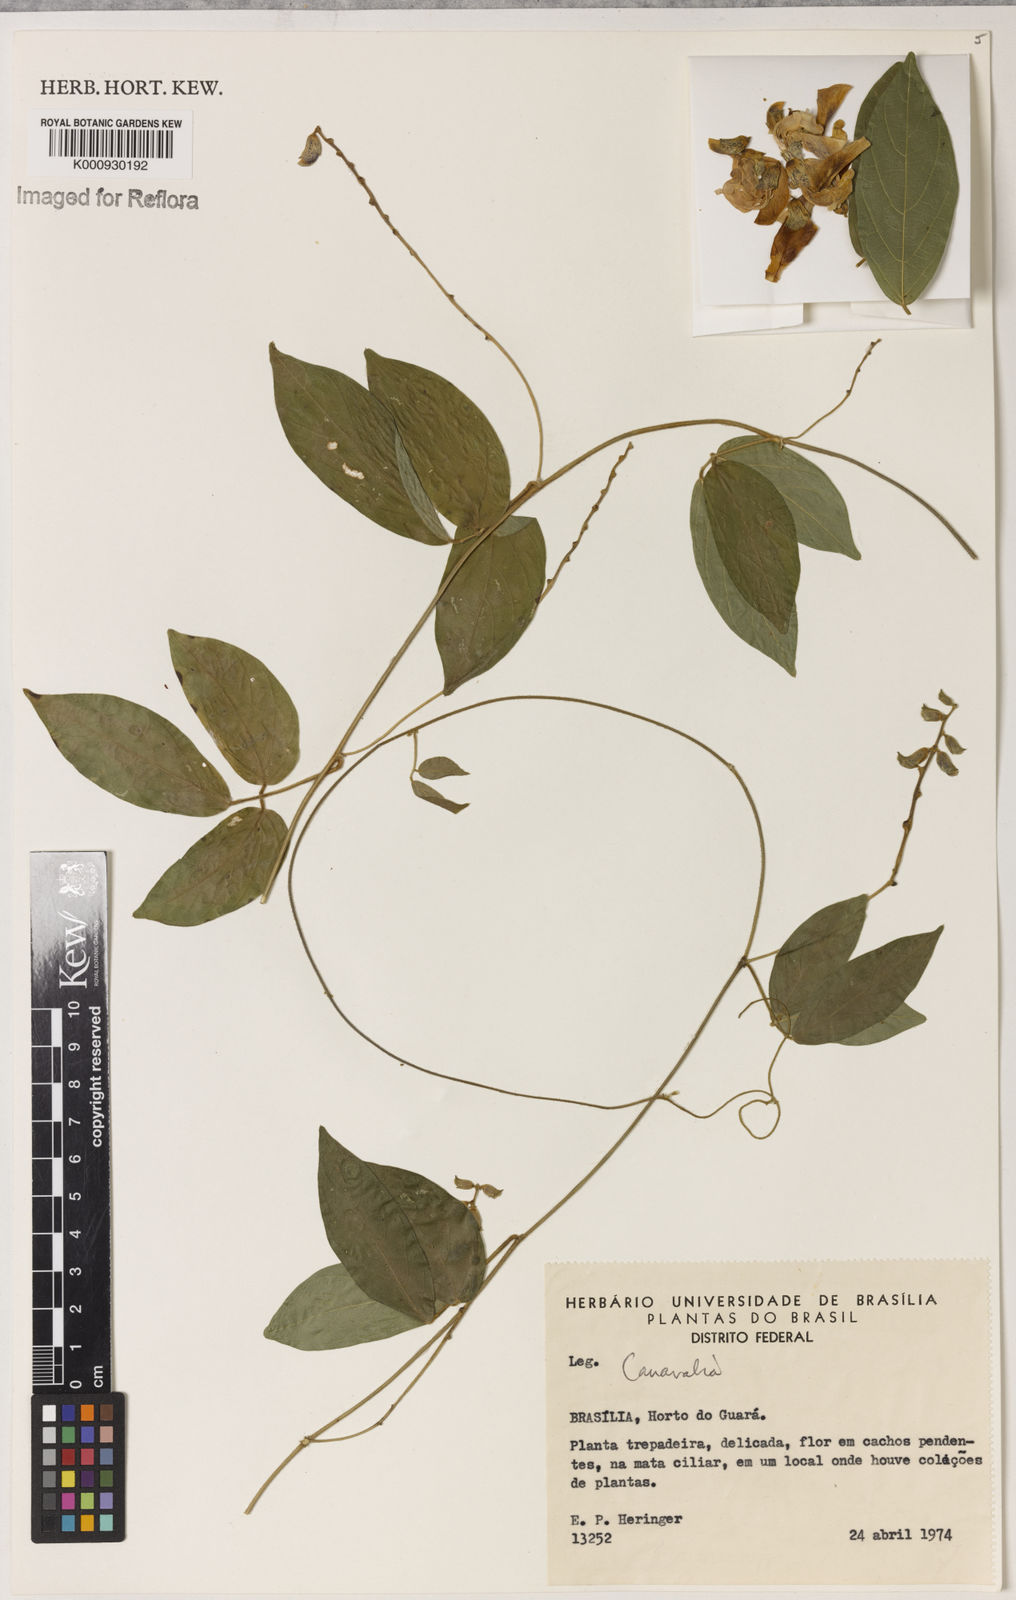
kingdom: Plantae
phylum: Tracheophyta
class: Magnoliopsida
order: Fabales
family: Fabaceae
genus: Canavalia
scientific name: Canavalia
